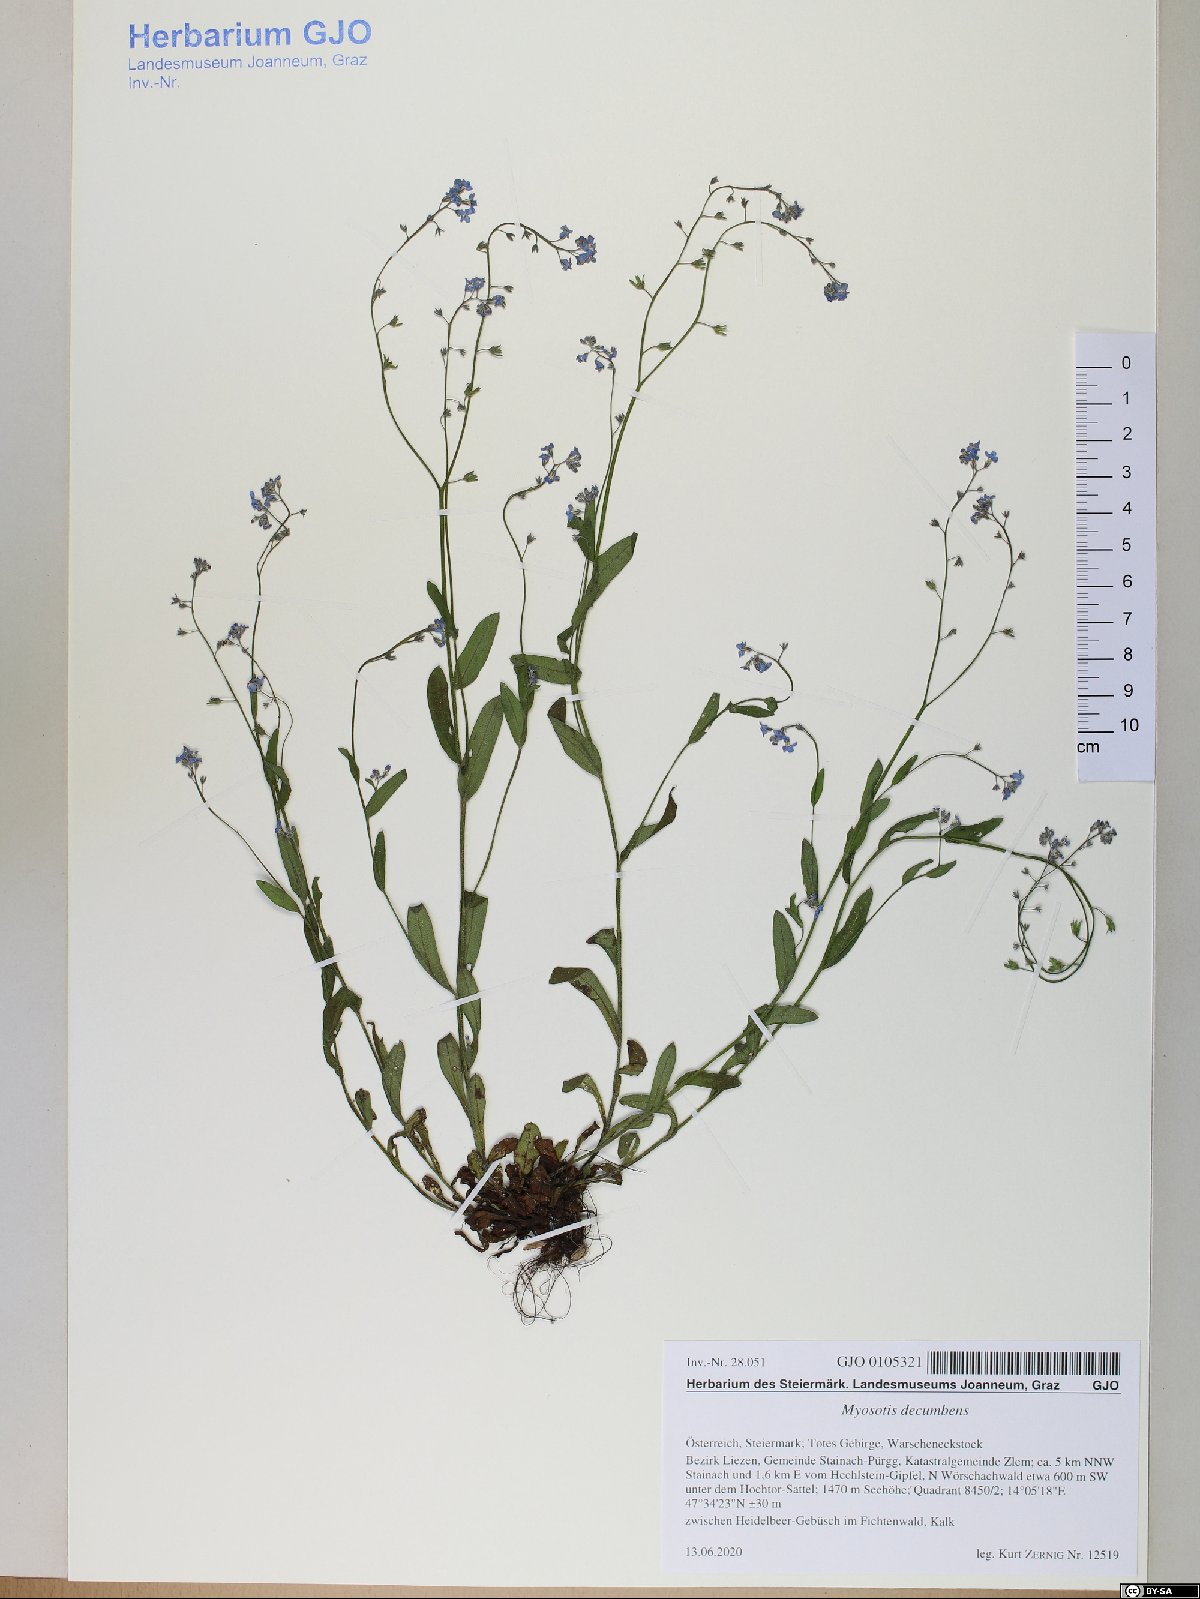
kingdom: Plantae
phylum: Tracheophyta
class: Magnoliopsida
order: Boraginales
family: Boraginaceae
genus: Myosotis
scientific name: Myosotis decumbens
